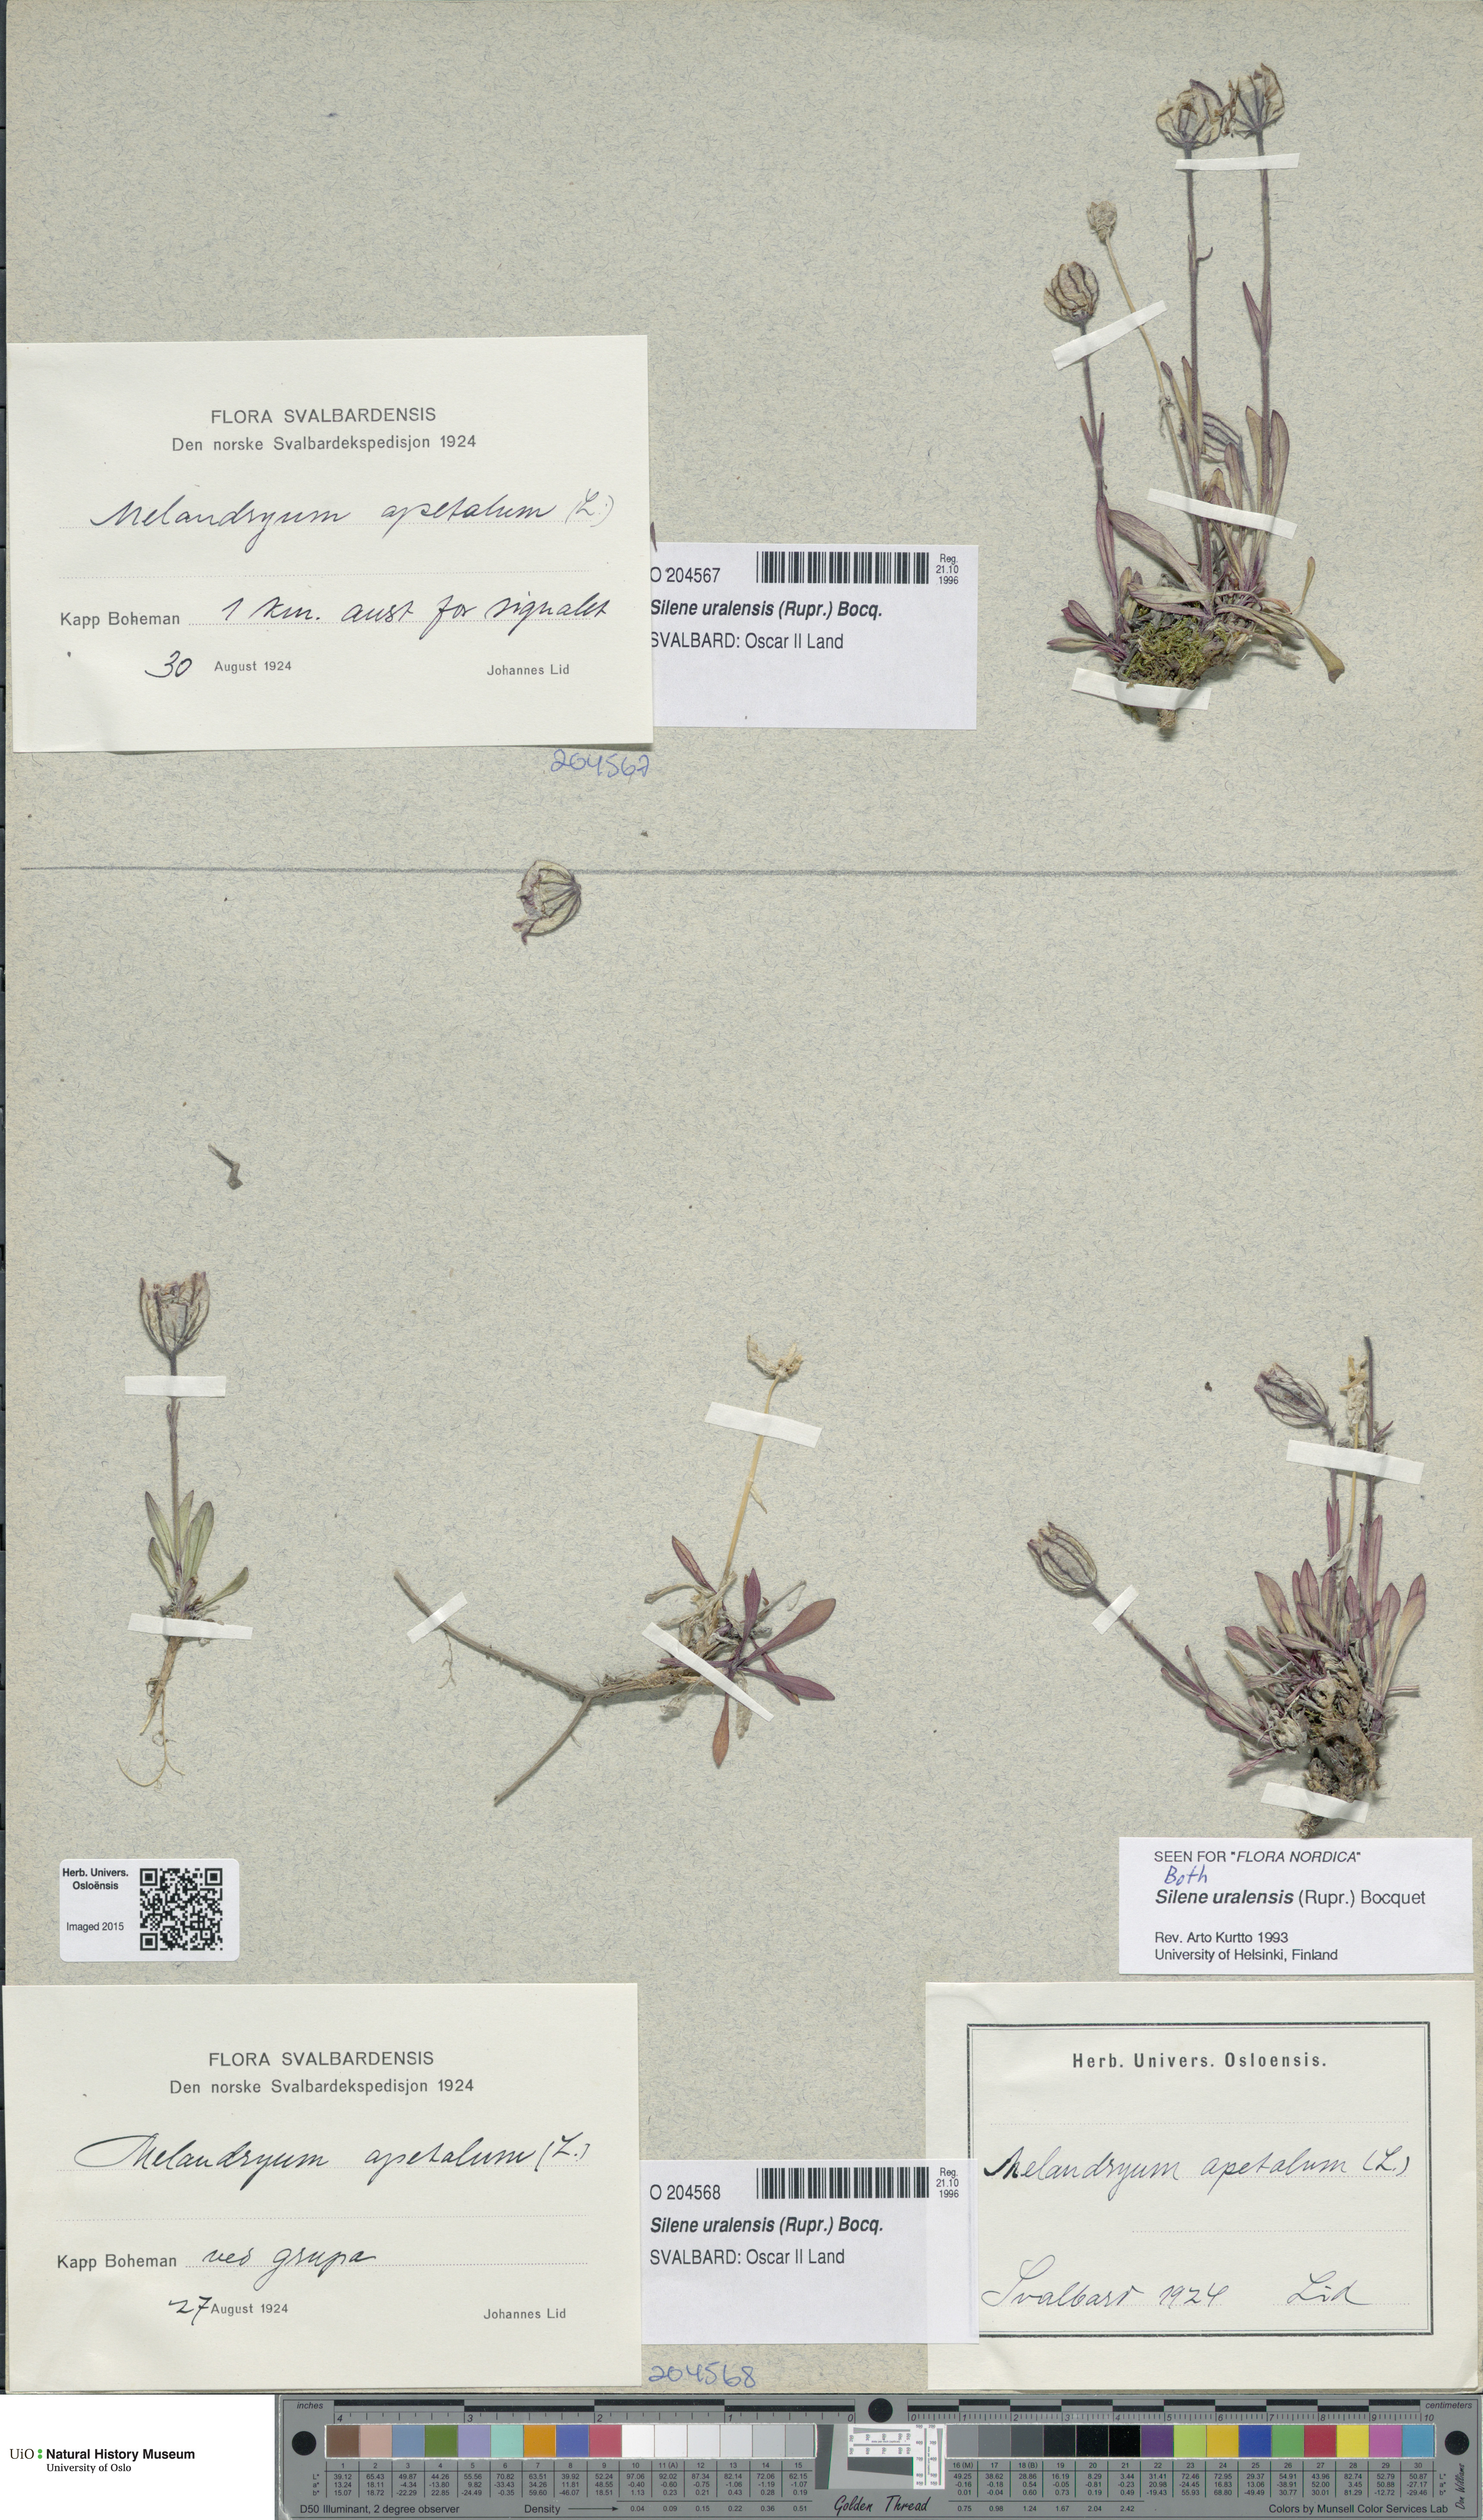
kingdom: Plantae
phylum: Tracheophyta
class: Magnoliopsida
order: Caryophyllales
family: Caryophyllaceae
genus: Silene
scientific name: Silene uralensis
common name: Nodding campion
